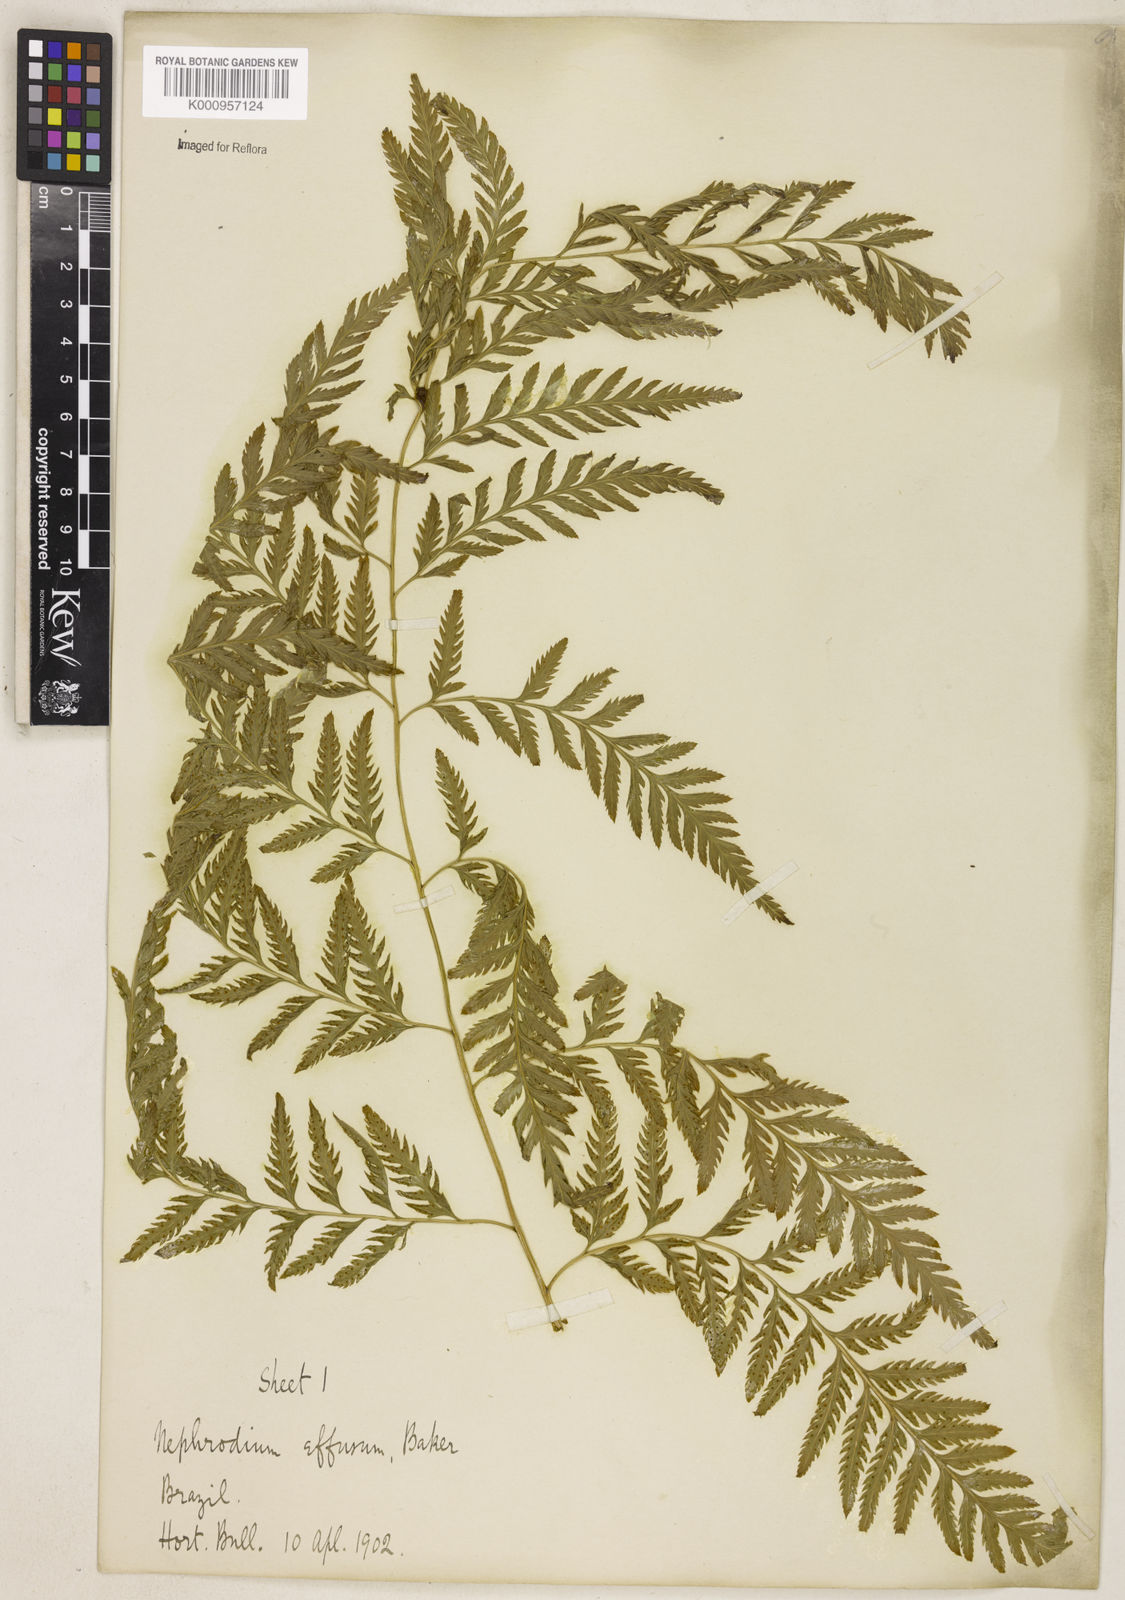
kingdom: Plantae
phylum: Tracheophyta
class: Polypodiopsida
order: Polypodiales
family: Dryopteridaceae
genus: Parapolystichum
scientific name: Parapolystichum effusum
